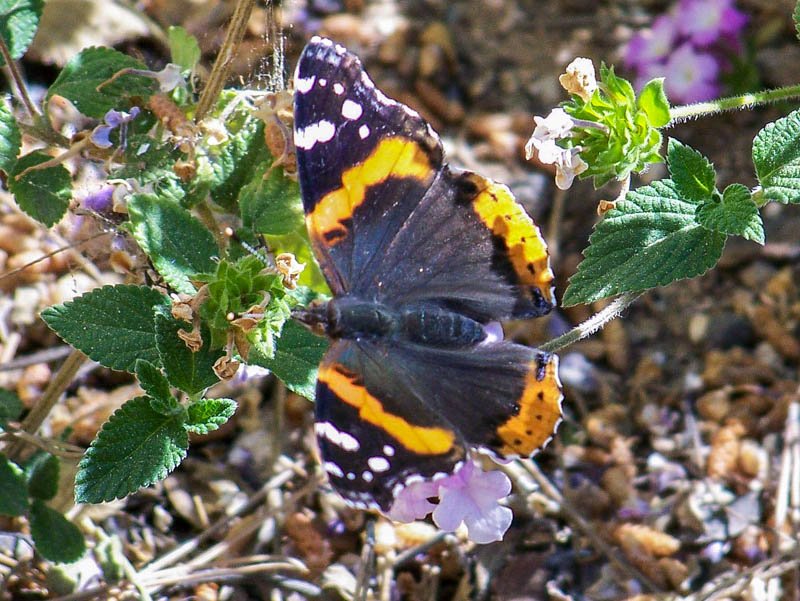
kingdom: Animalia
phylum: Arthropoda
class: Insecta
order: Lepidoptera
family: Nymphalidae
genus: Vanessa
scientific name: Vanessa atalanta
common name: Red Admiral
